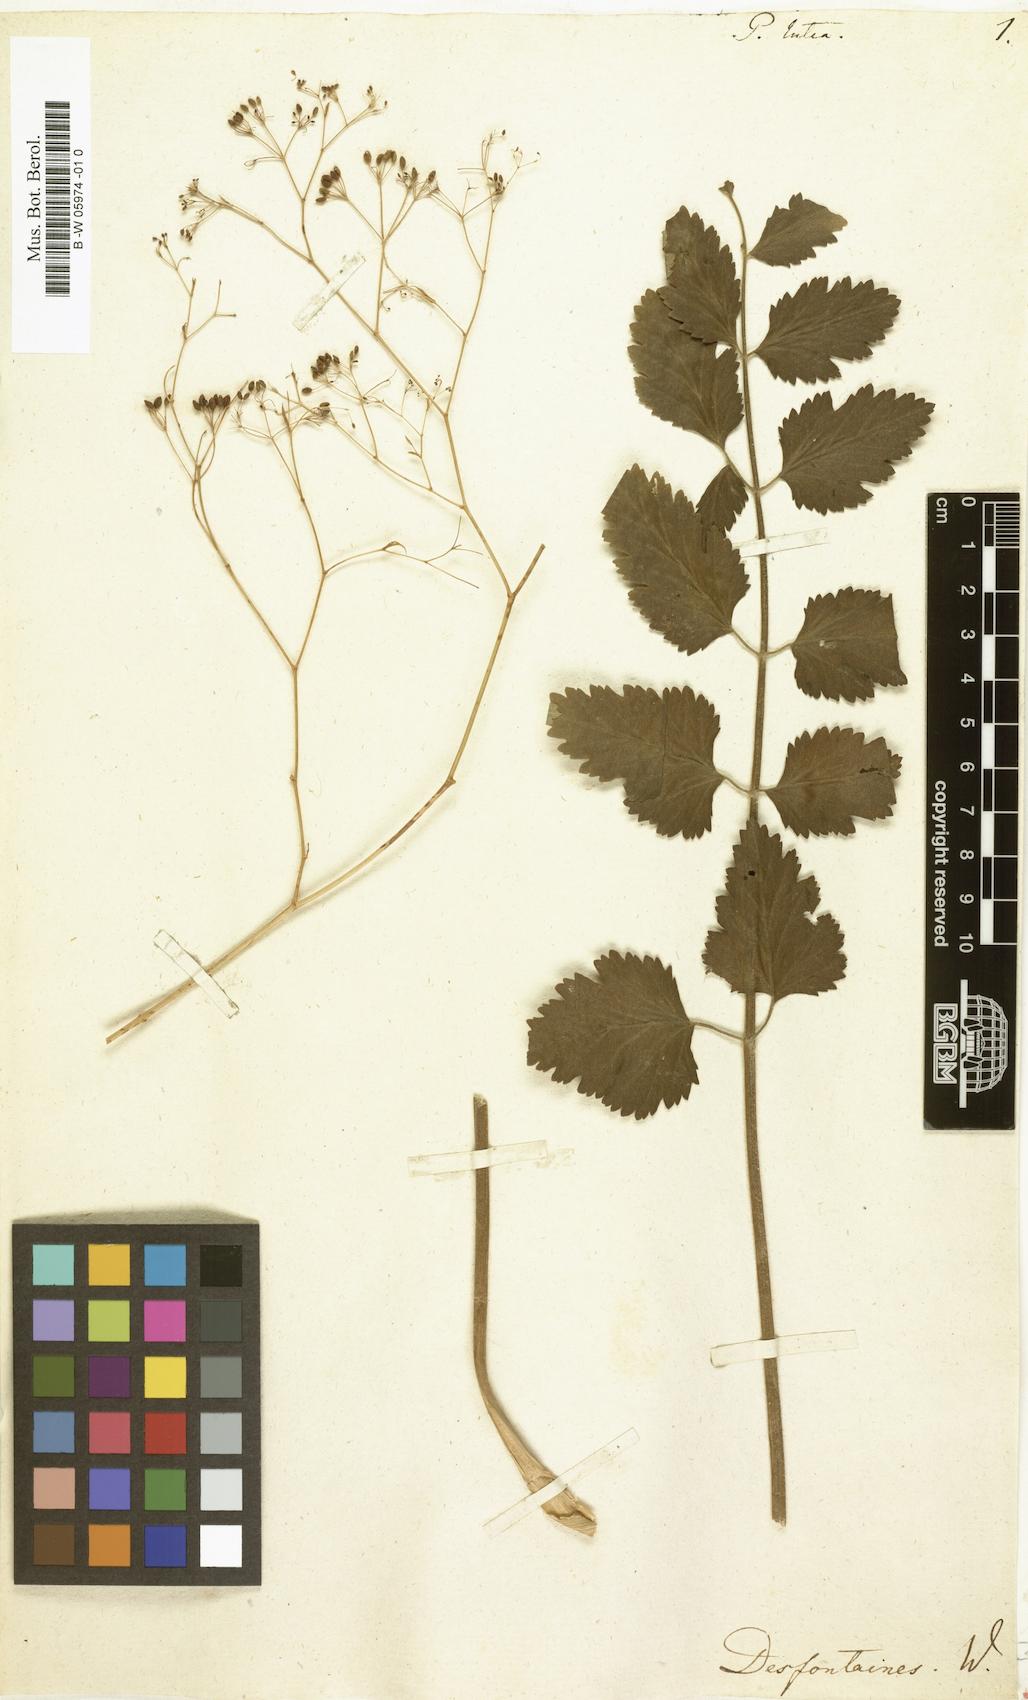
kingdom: Plantae
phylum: Tracheophyta
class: Magnoliopsida
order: Apiales
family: Apiaceae
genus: Pimpinella
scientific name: Pimpinella lutea
